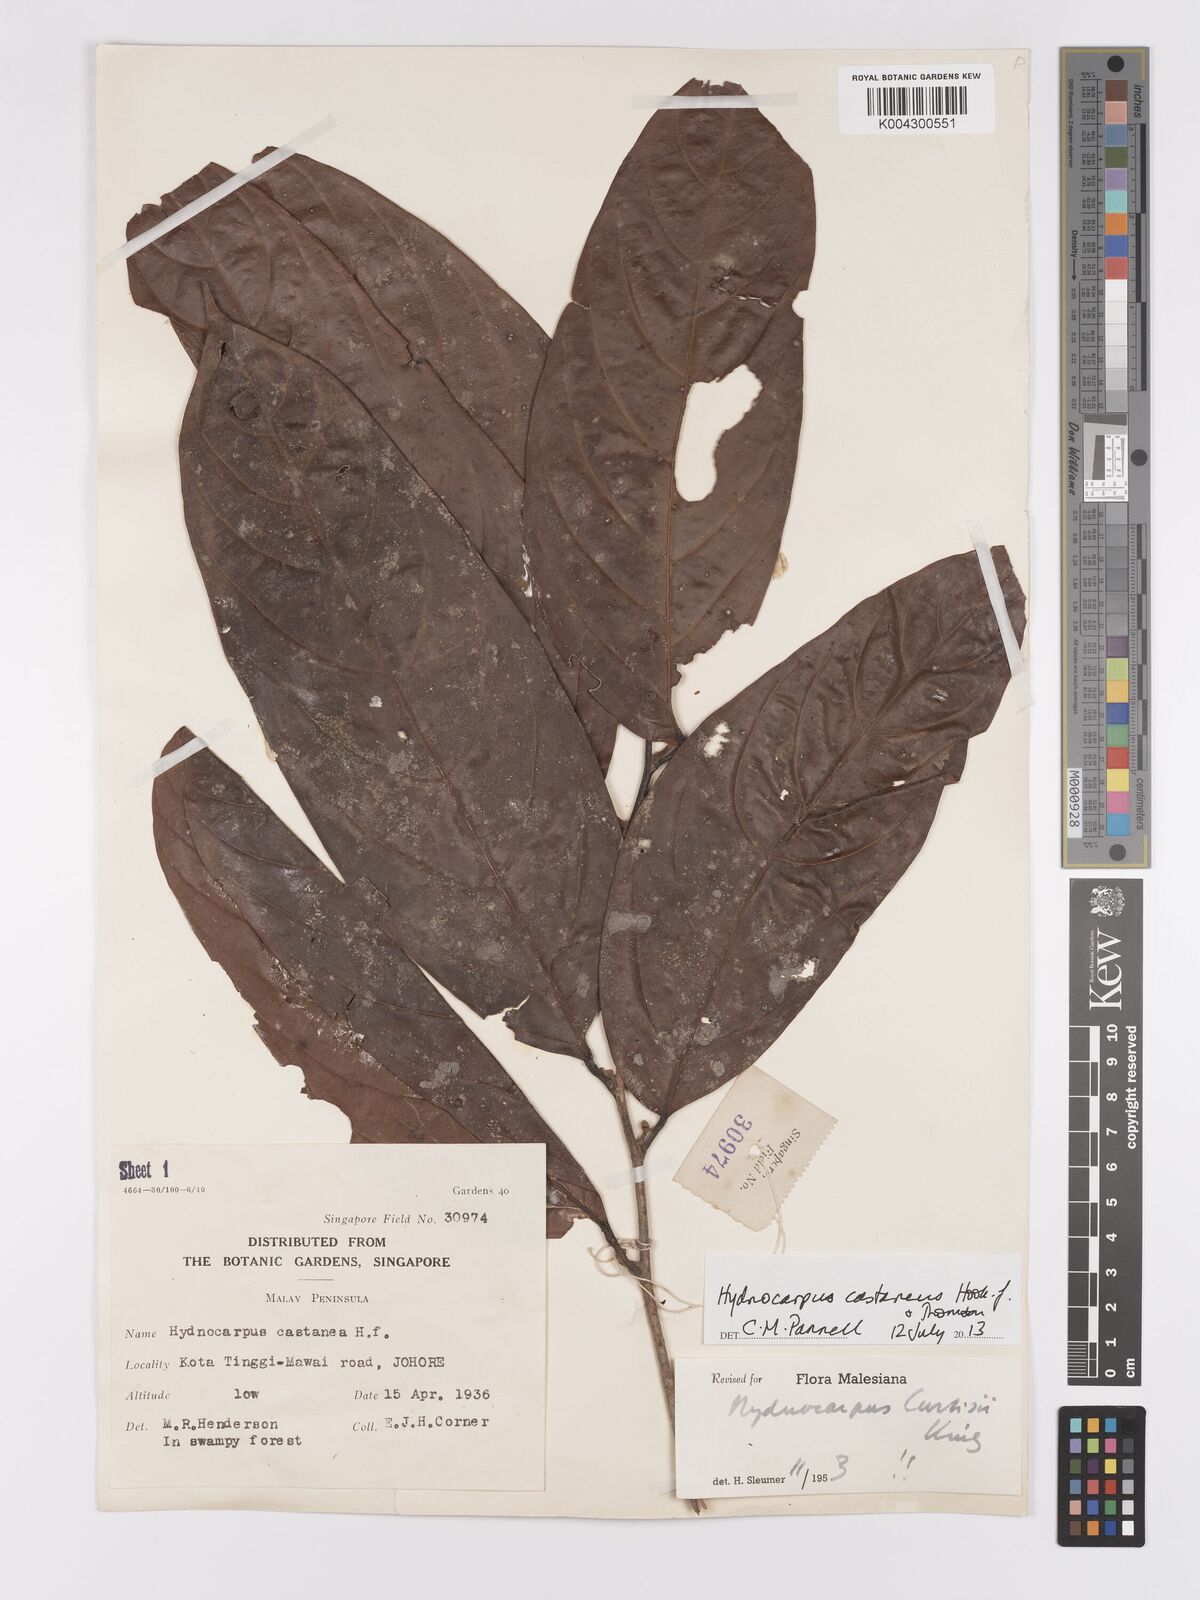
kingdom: Plantae
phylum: Tracheophyta
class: Magnoliopsida
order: Malpighiales
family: Achariaceae
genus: Hydnocarpus
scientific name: Hydnocarpus curtisii
